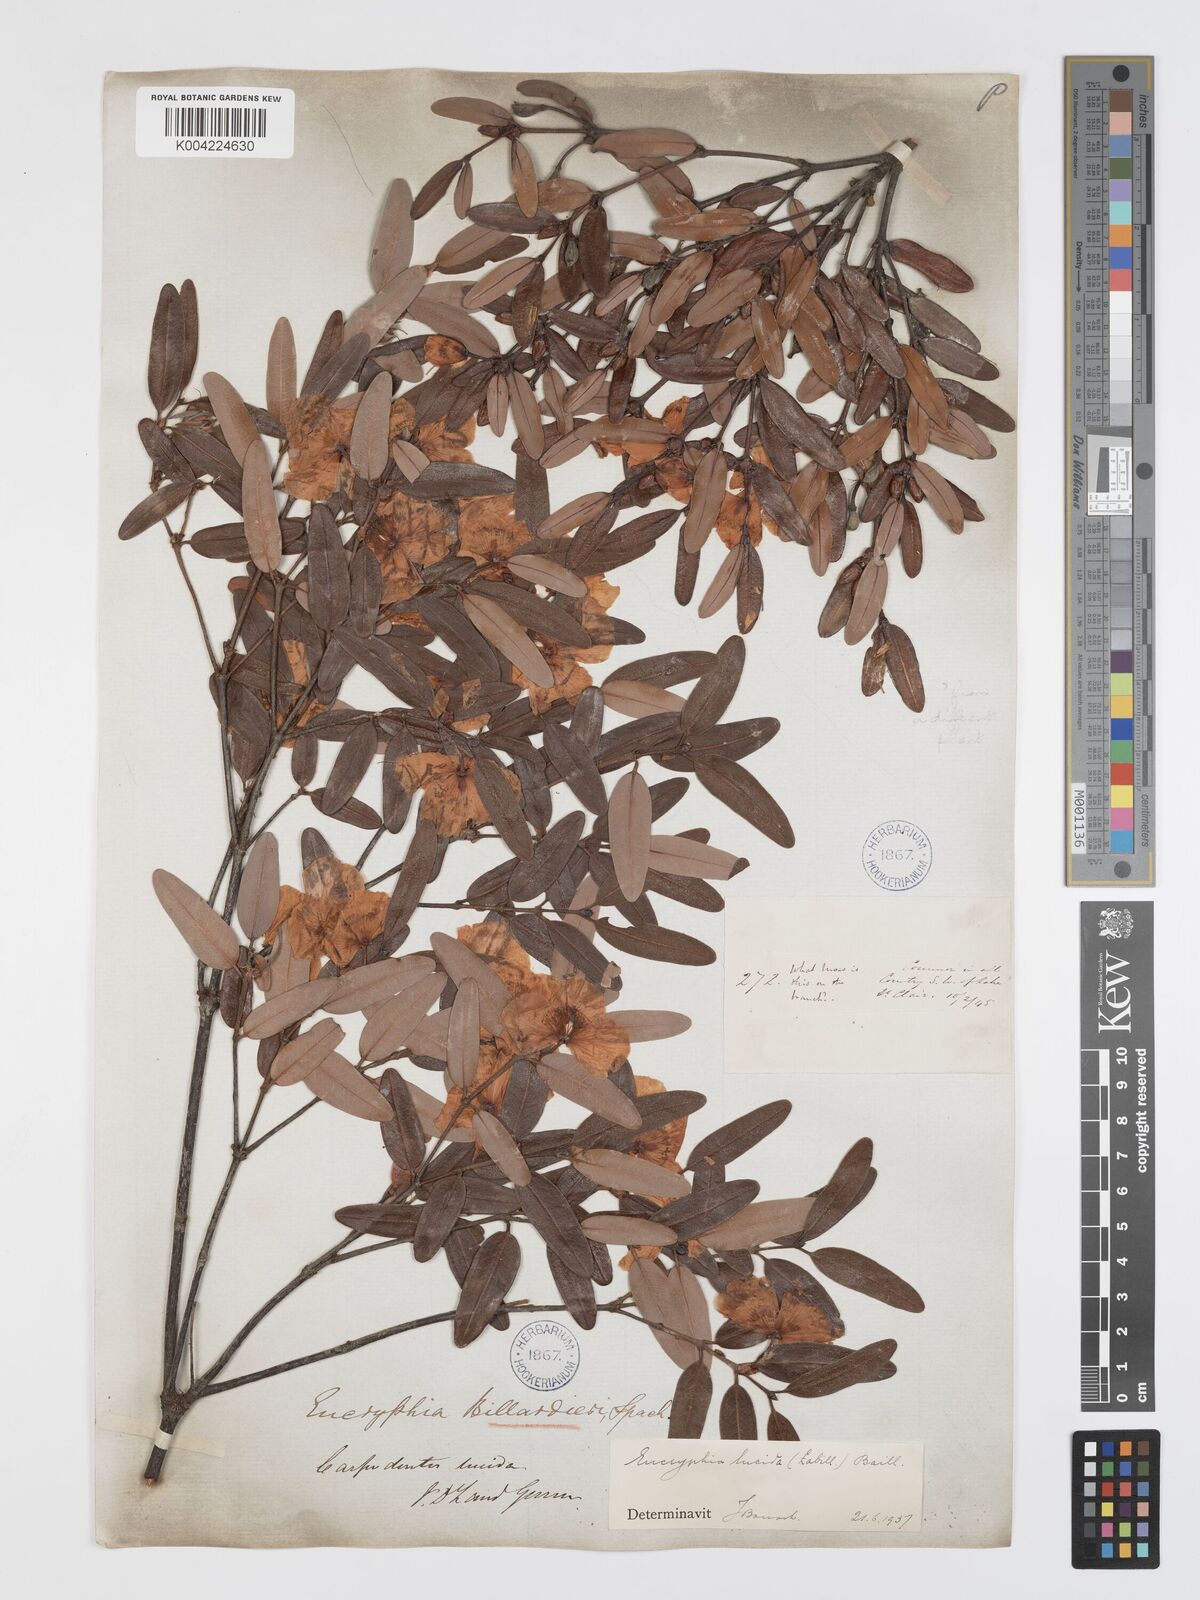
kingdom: Plantae
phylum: Tracheophyta
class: Magnoliopsida
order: Oxalidales
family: Cunoniaceae
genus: Eucryphia
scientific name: Eucryphia lucida
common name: Leatherwood
